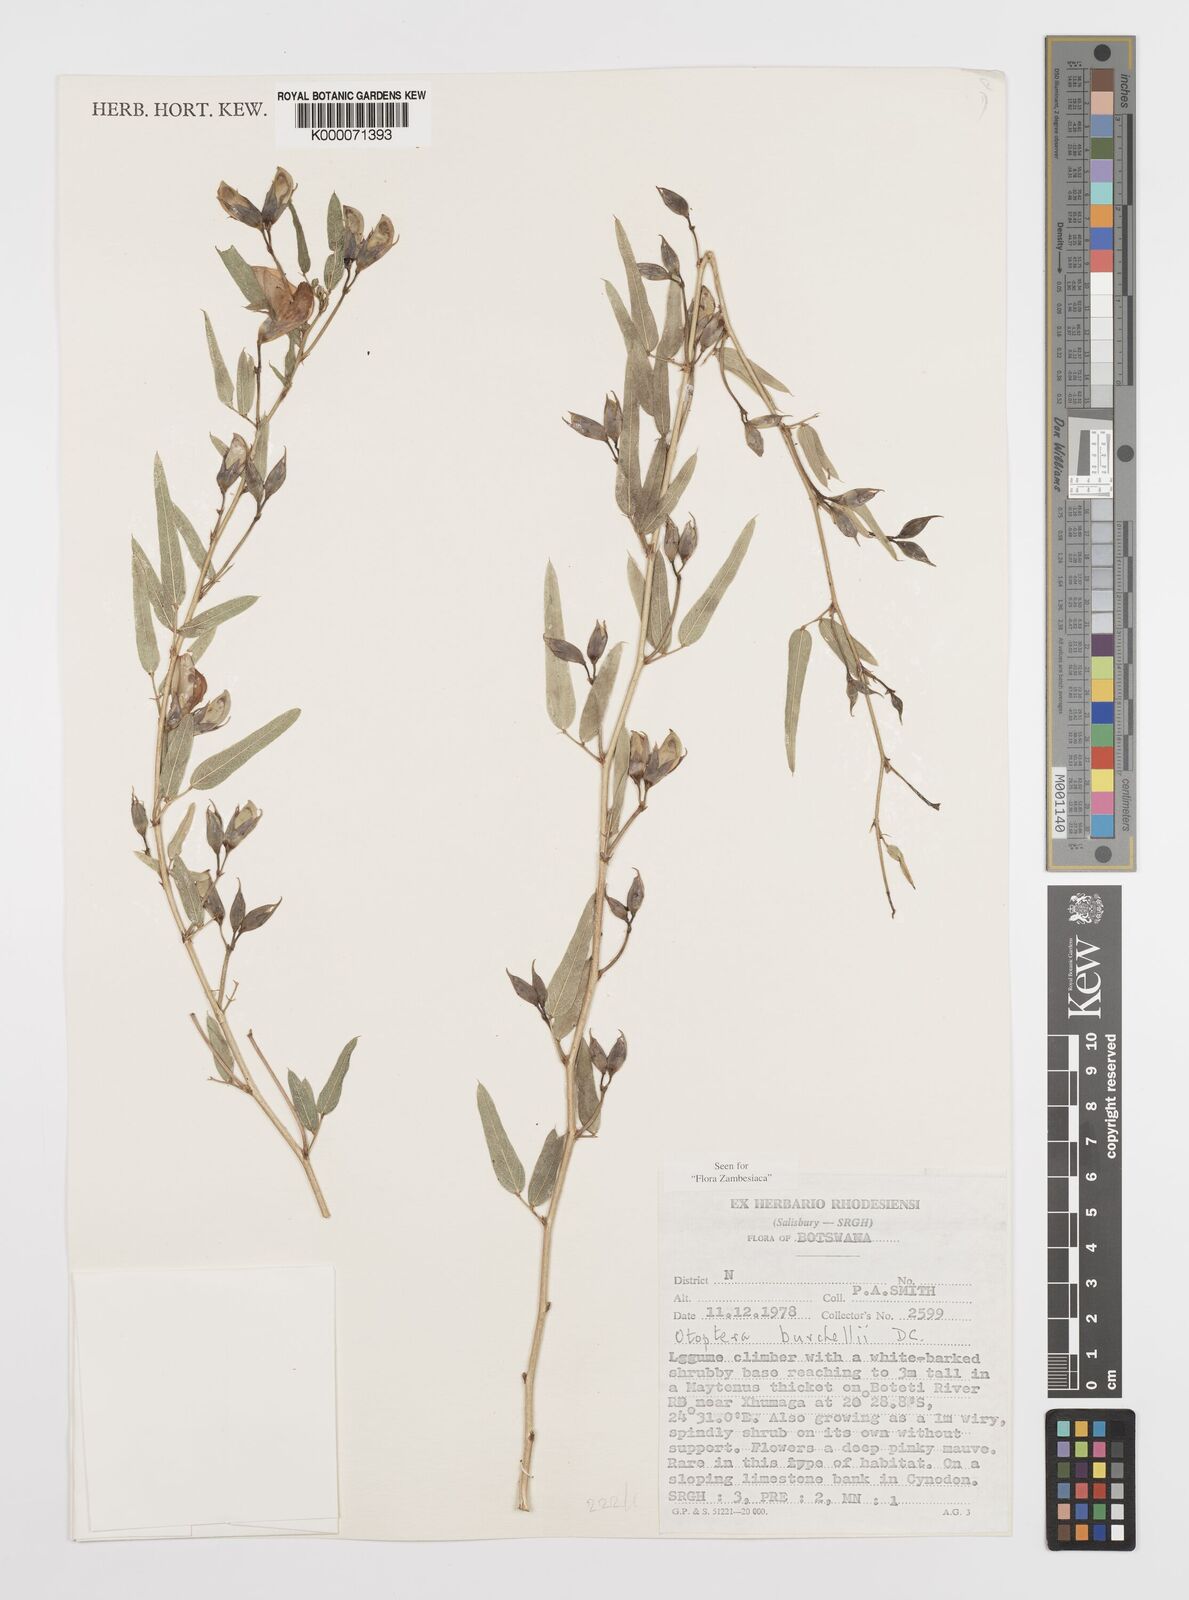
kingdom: Plantae
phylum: Tracheophyta
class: Magnoliopsida
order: Fabales
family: Fabaceae
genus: Otoptera
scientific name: Otoptera burchellii
